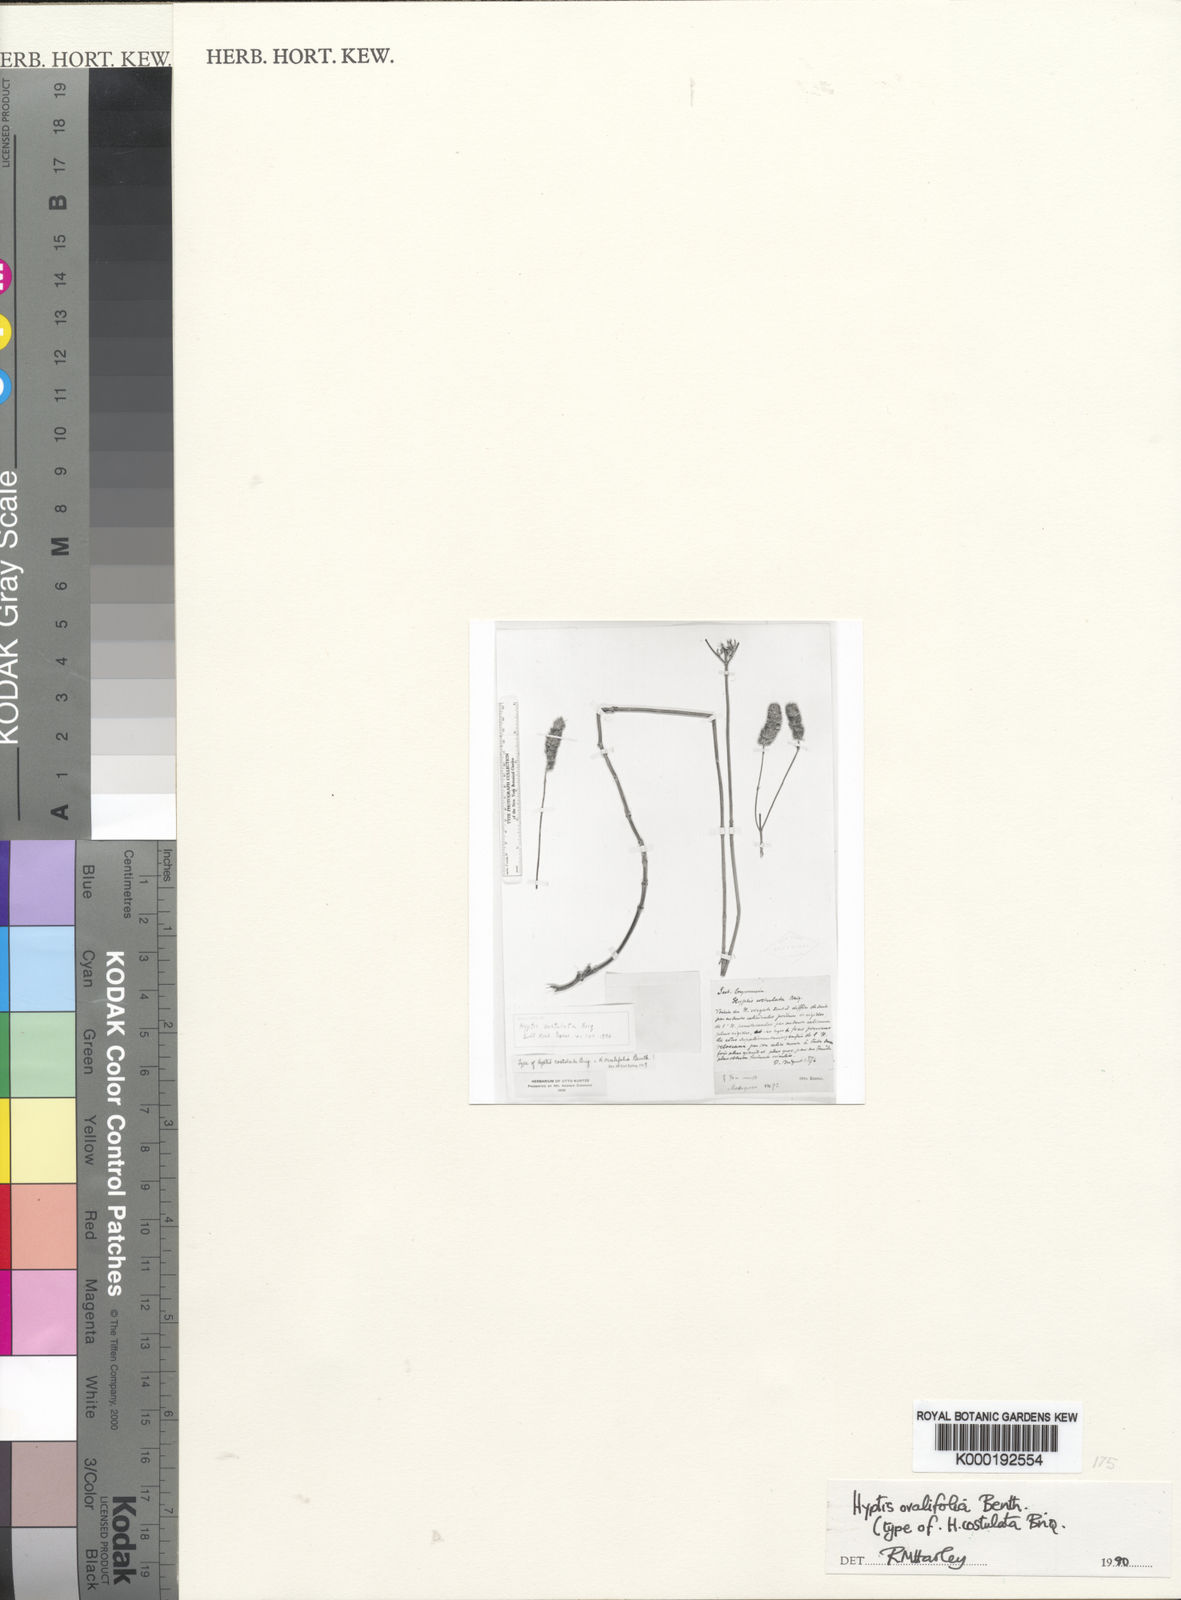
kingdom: Plantae
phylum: Tracheophyta
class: Magnoliopsida
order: Lamiales
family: Lamiaceae
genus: Hyptis
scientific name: Hyptis ovalifolia
